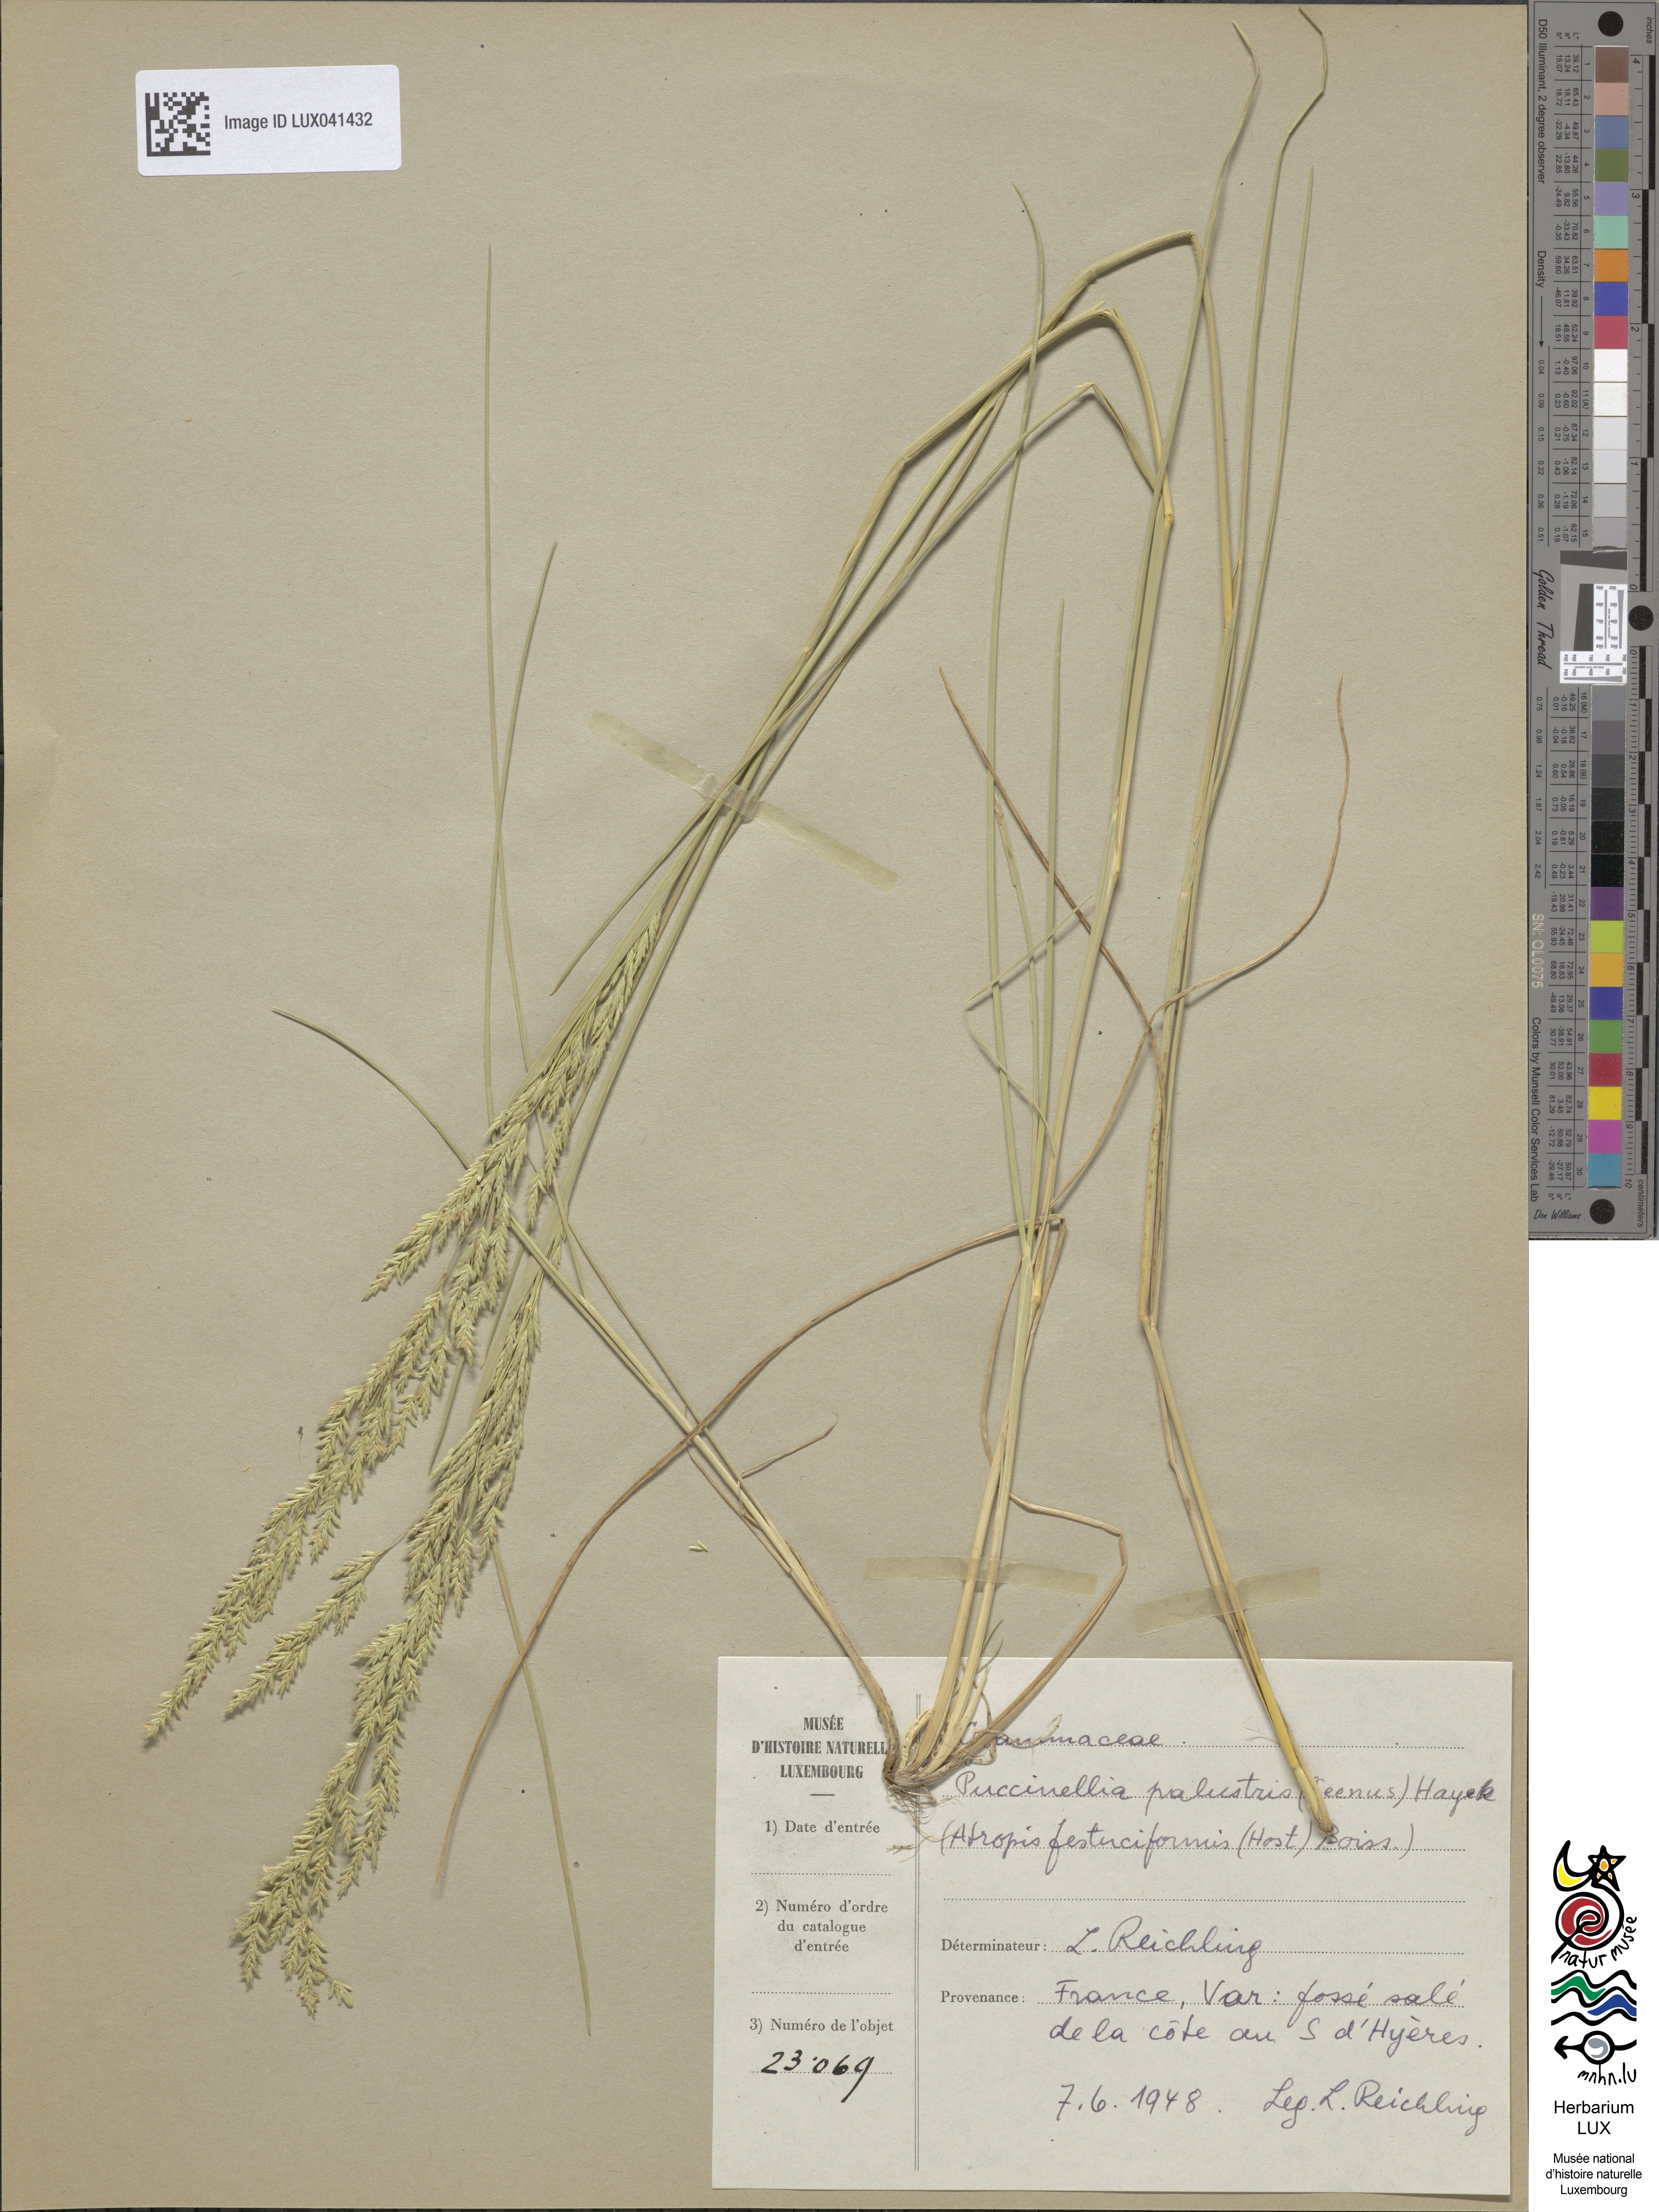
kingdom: Plantae
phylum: Tracheophyta
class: Liliopsida
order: Poales
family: Poaceae
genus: Puccinellia
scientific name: Puccinellia festuciformis
